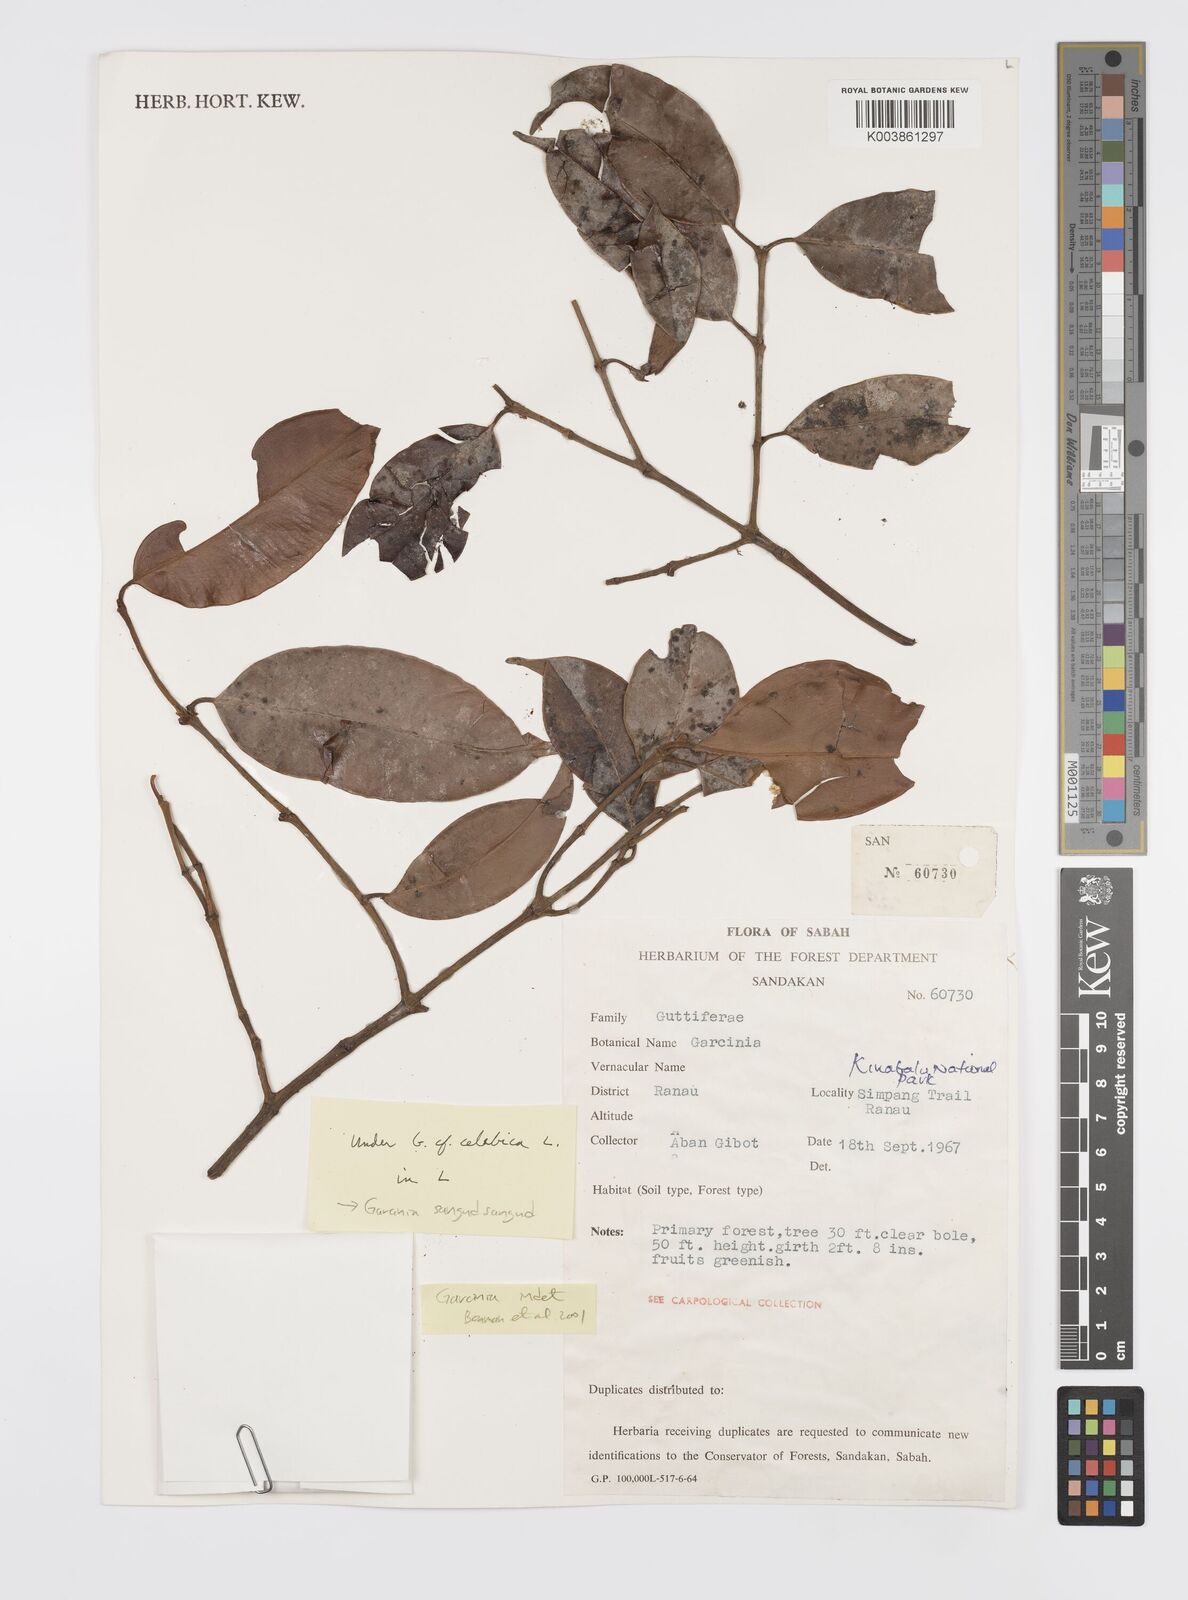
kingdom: Plantae
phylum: Tracheophyta
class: Magnoliopsida
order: Malpighiales
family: Clusiaceae
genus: Garcinia
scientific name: Garcinia sangudsangud
